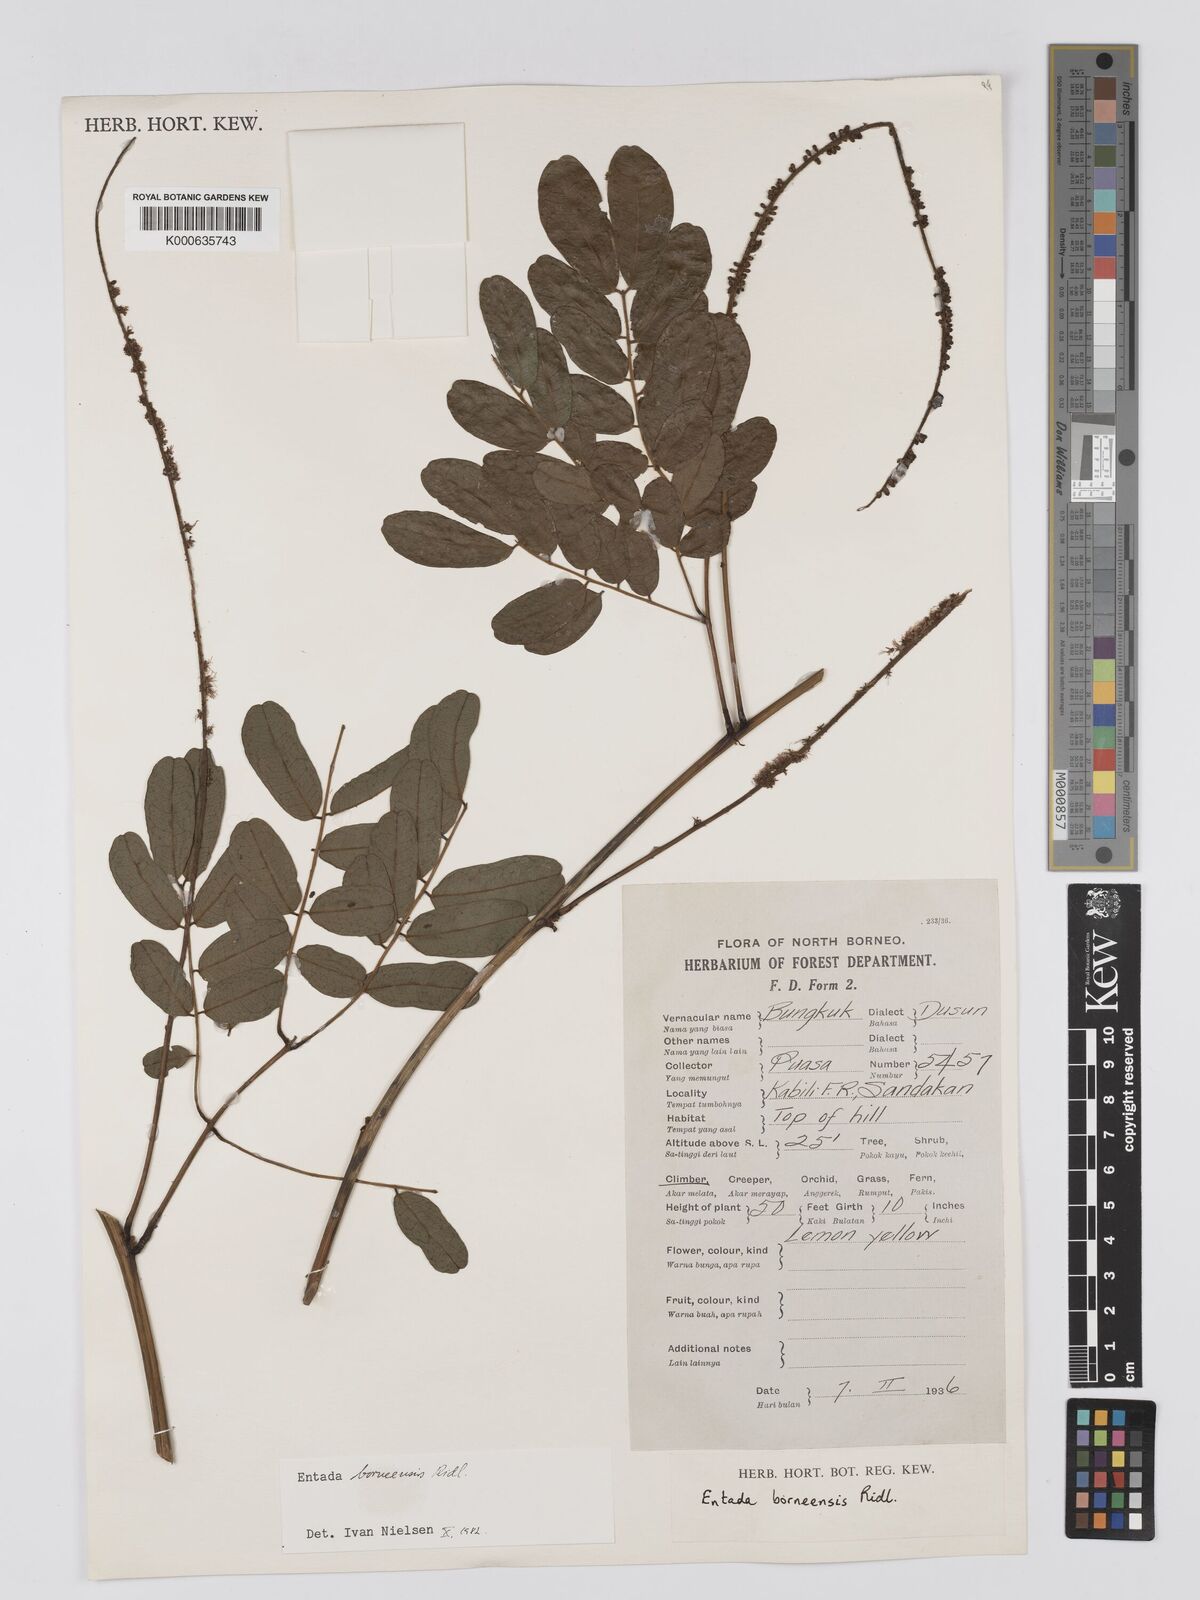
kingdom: Plantae
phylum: Tracheophyta
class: Magnoliopsida
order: Fabales
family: Fabaceae
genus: Entada
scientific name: Entada borneensis
